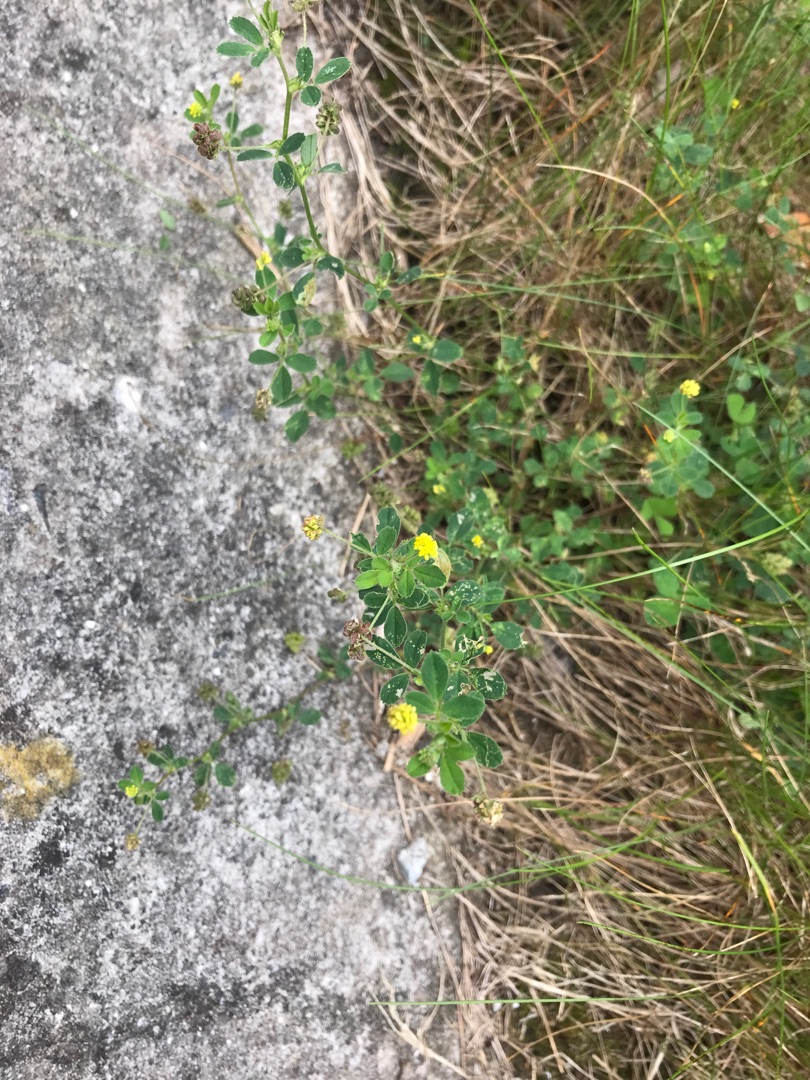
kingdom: Plantae
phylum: Tracheophyta
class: Magnoliopsida
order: Fabales
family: Fabaceae
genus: Medicago
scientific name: Medicago lupulina
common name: Humle-sneglebælg
